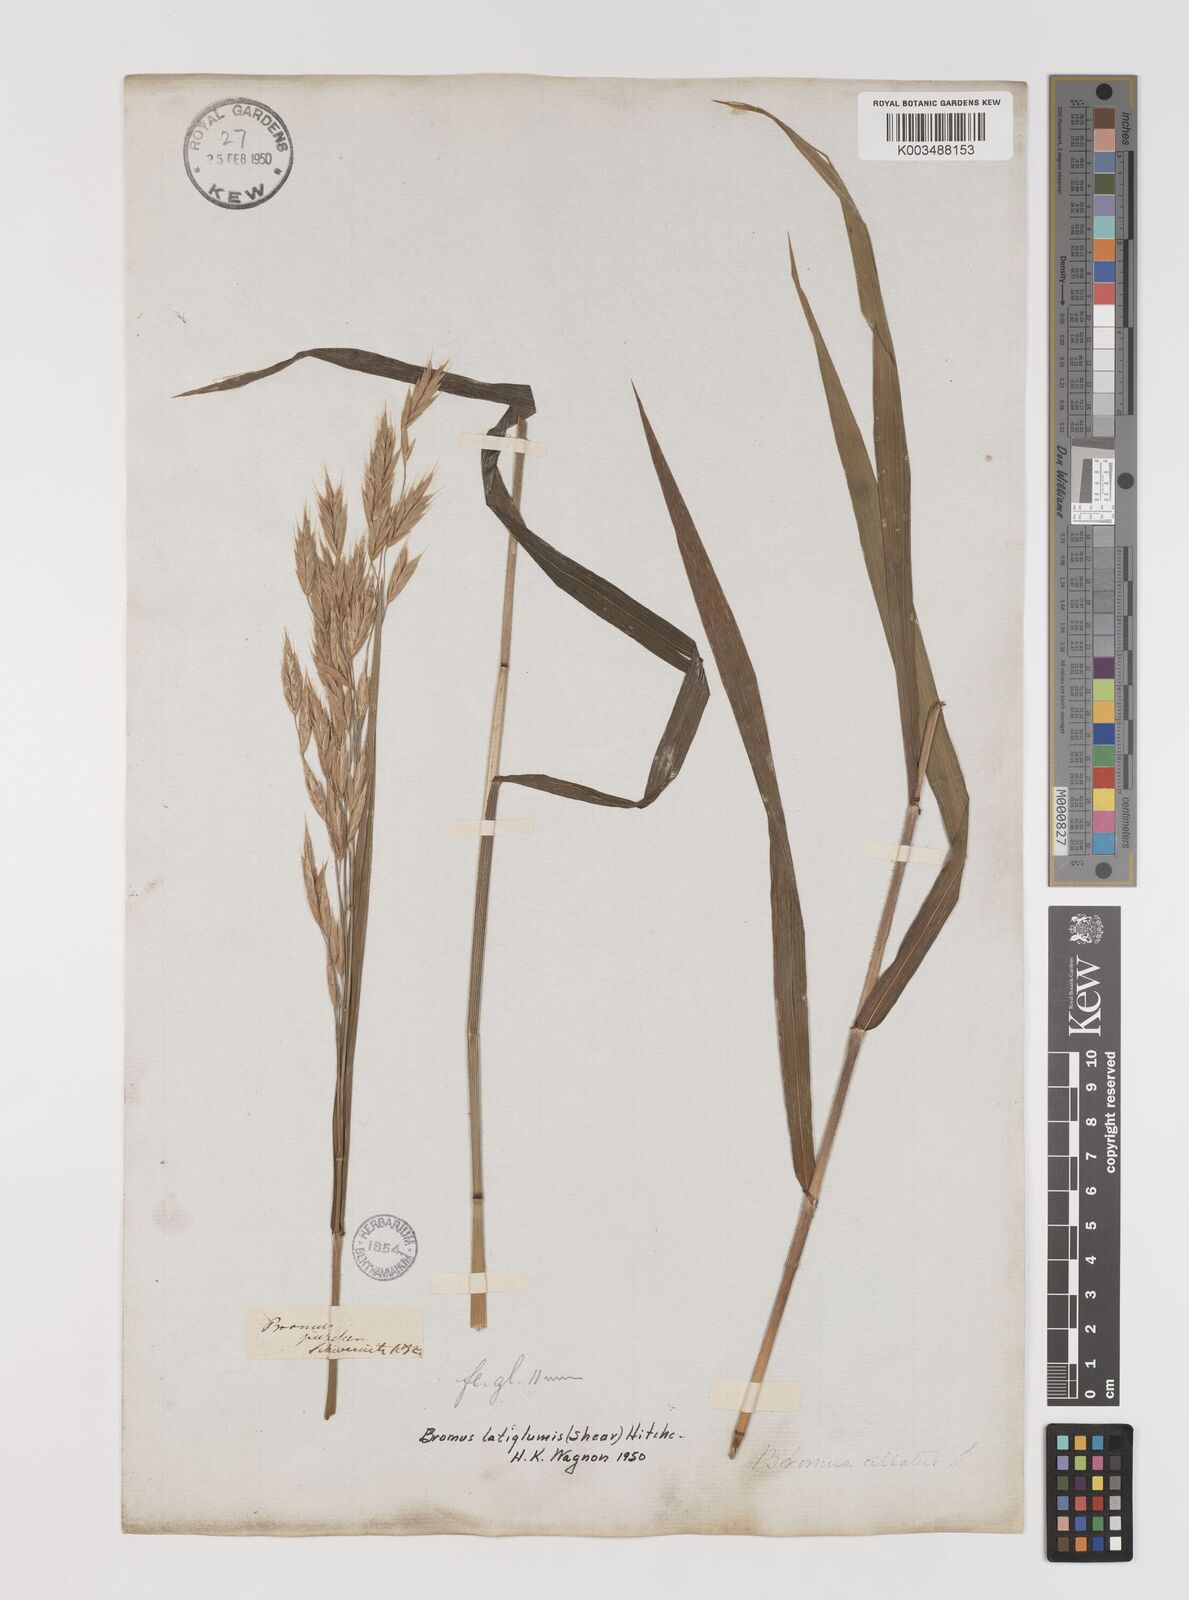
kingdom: Plantae
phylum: Tracheophyta
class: Liliopsida
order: Poales
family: Poaceae
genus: Bromus
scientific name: Bromus latiglumis
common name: Broad-glumed brome
